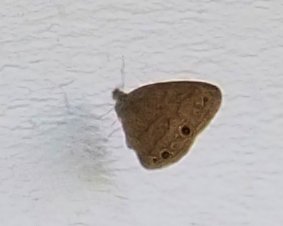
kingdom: Animalia
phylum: Arthropoda
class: Insecta
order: Lepidoptera
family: Nymphalidae
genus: Hermeuptychia
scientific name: Hermeuptychia hermes
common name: Carolina Satyr
